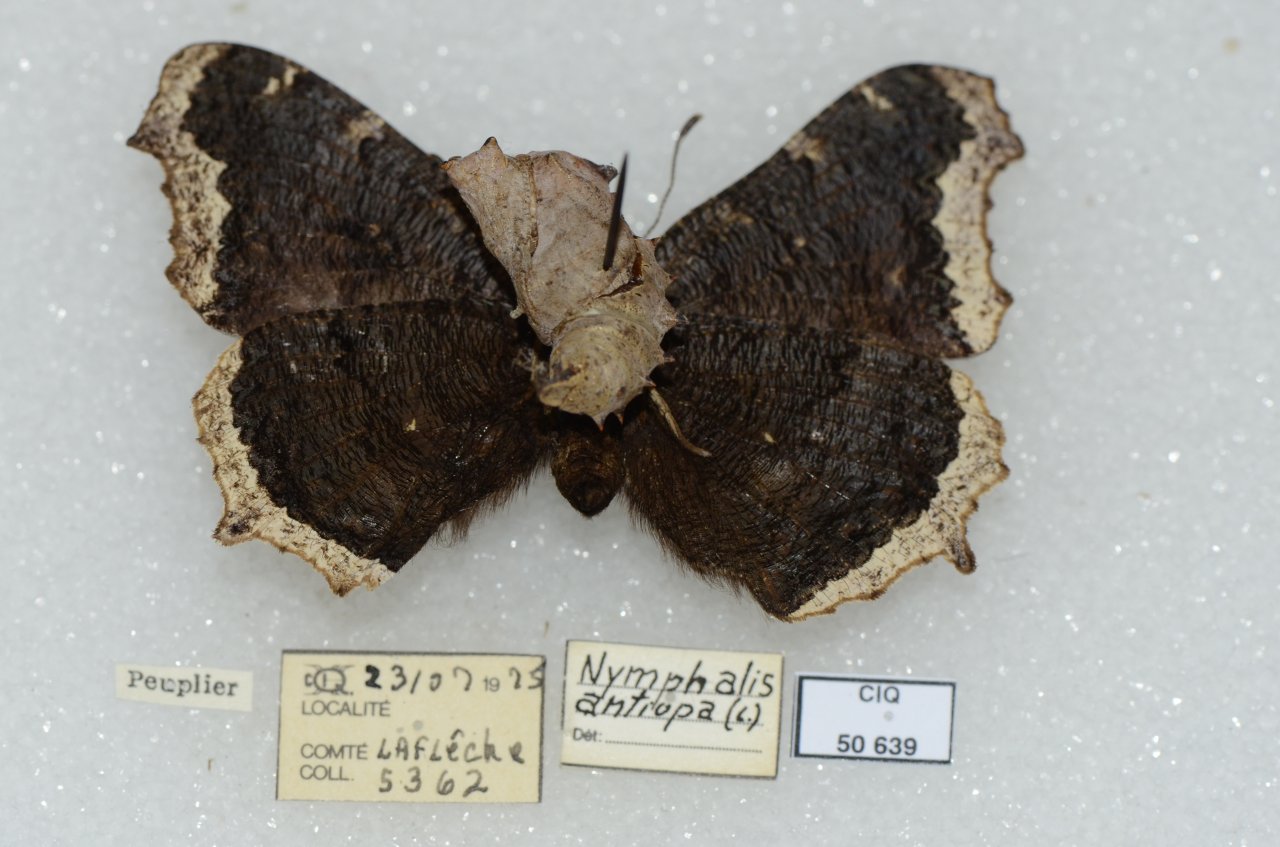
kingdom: Animalia
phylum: Arthropoda
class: Insecta
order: Lepidoptera
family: Nymphalidae
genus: Nymphalis
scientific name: Nymphalis antiopa
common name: Mourning Cloak
